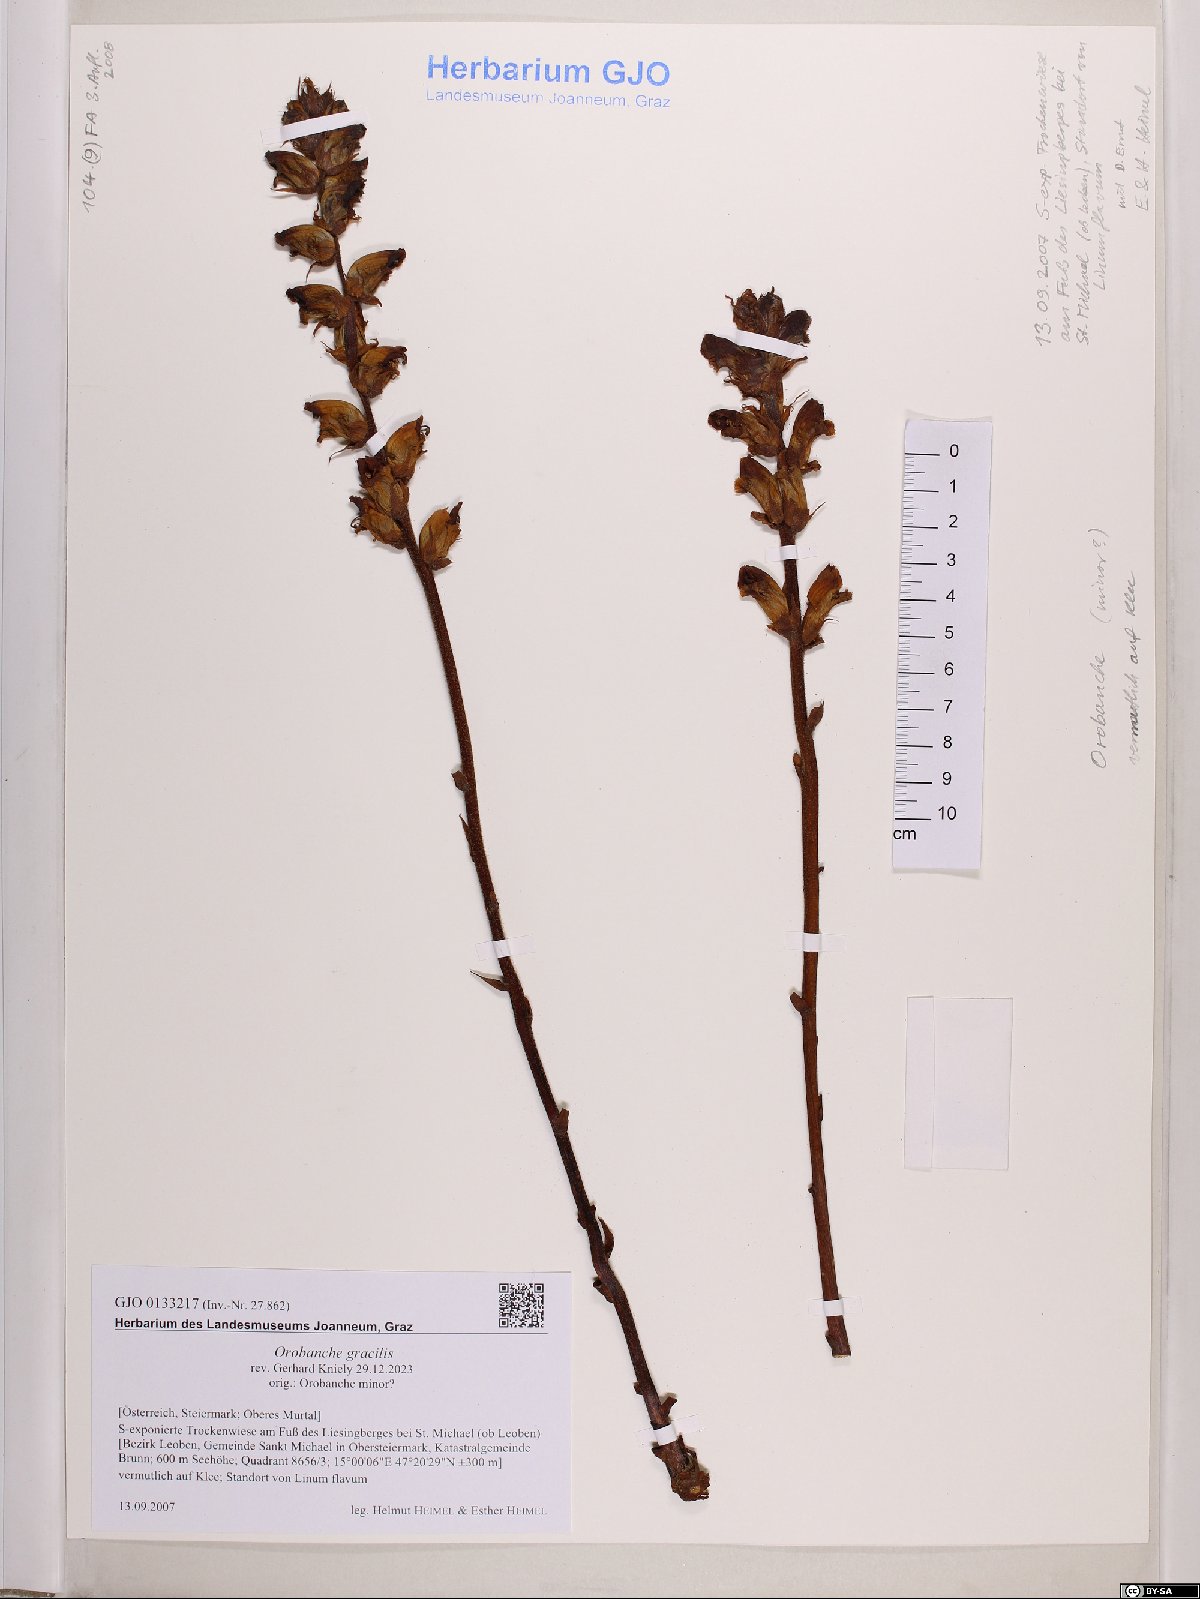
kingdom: Plantae
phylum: Tracheophyta
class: Magnoliopsida
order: Lamiales
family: Orobanchaceae
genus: Orobanche
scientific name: Orobanche gracilis
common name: Slender broomrape
